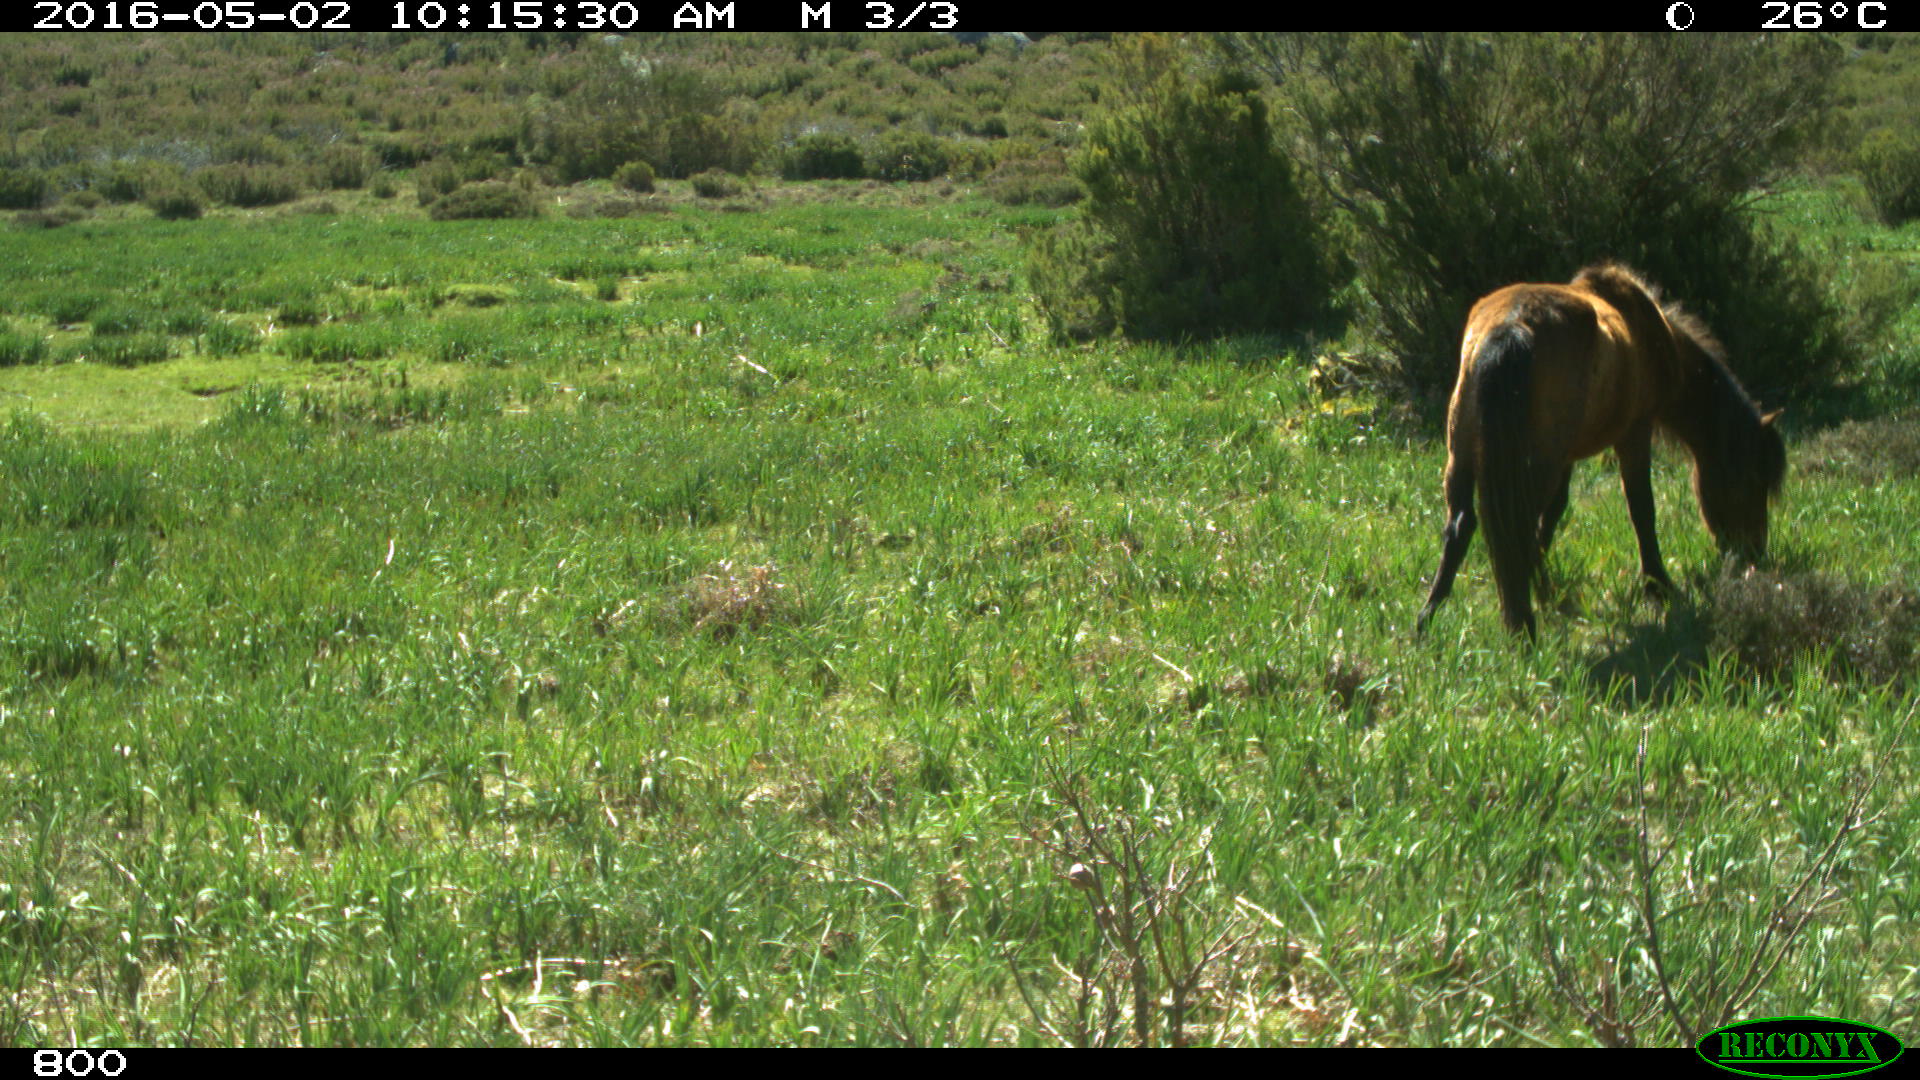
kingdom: Animalia
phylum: Chordata
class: Mammalia
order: Perissodactyla
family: Equidae
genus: Equus
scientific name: Equus caballus
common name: Horse
